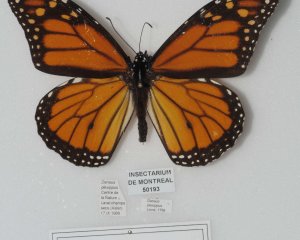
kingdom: Animalia
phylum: Arthropoda
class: Insecta
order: Lepidoptera
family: Nymphalidae
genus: Danaus
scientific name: Danaus plexippus
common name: Monarch
